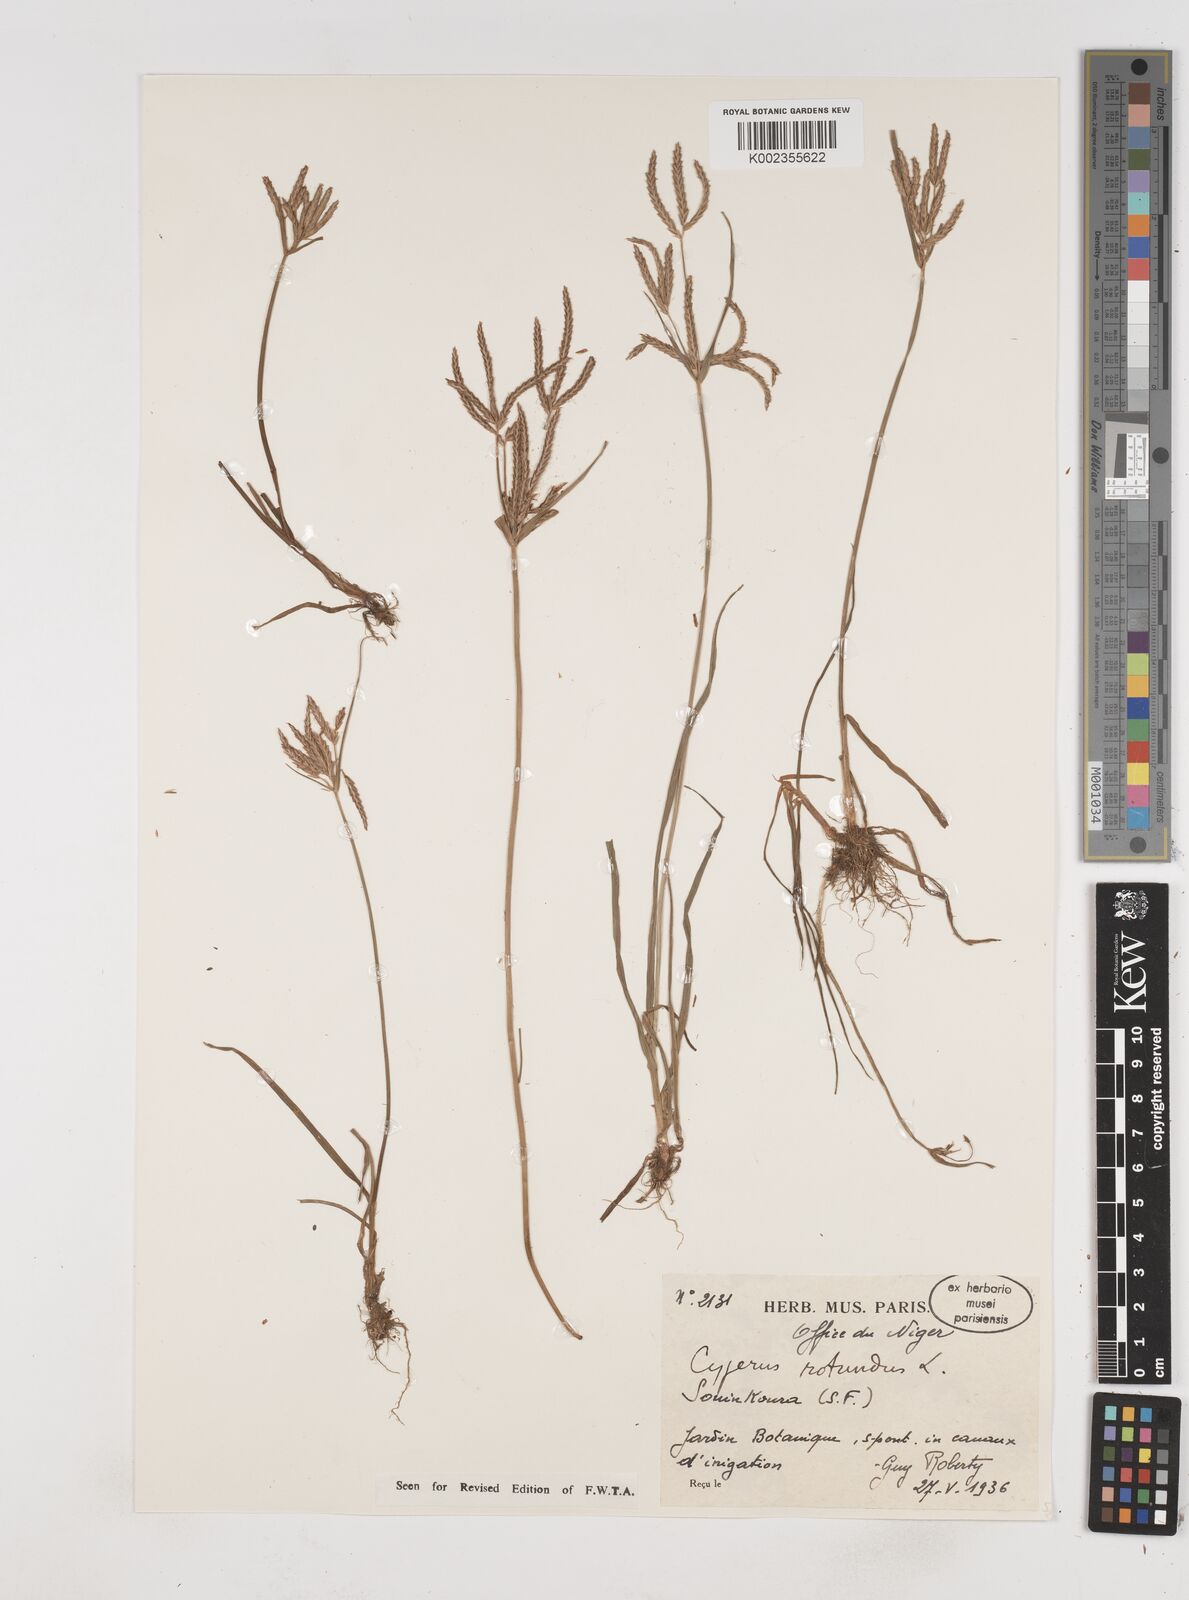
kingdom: Plantae
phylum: Tracheophyta
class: Liliopsida
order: Poales
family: Cyperaceae
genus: Cyperus
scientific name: Cyperus rotundus
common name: Nutgrass
